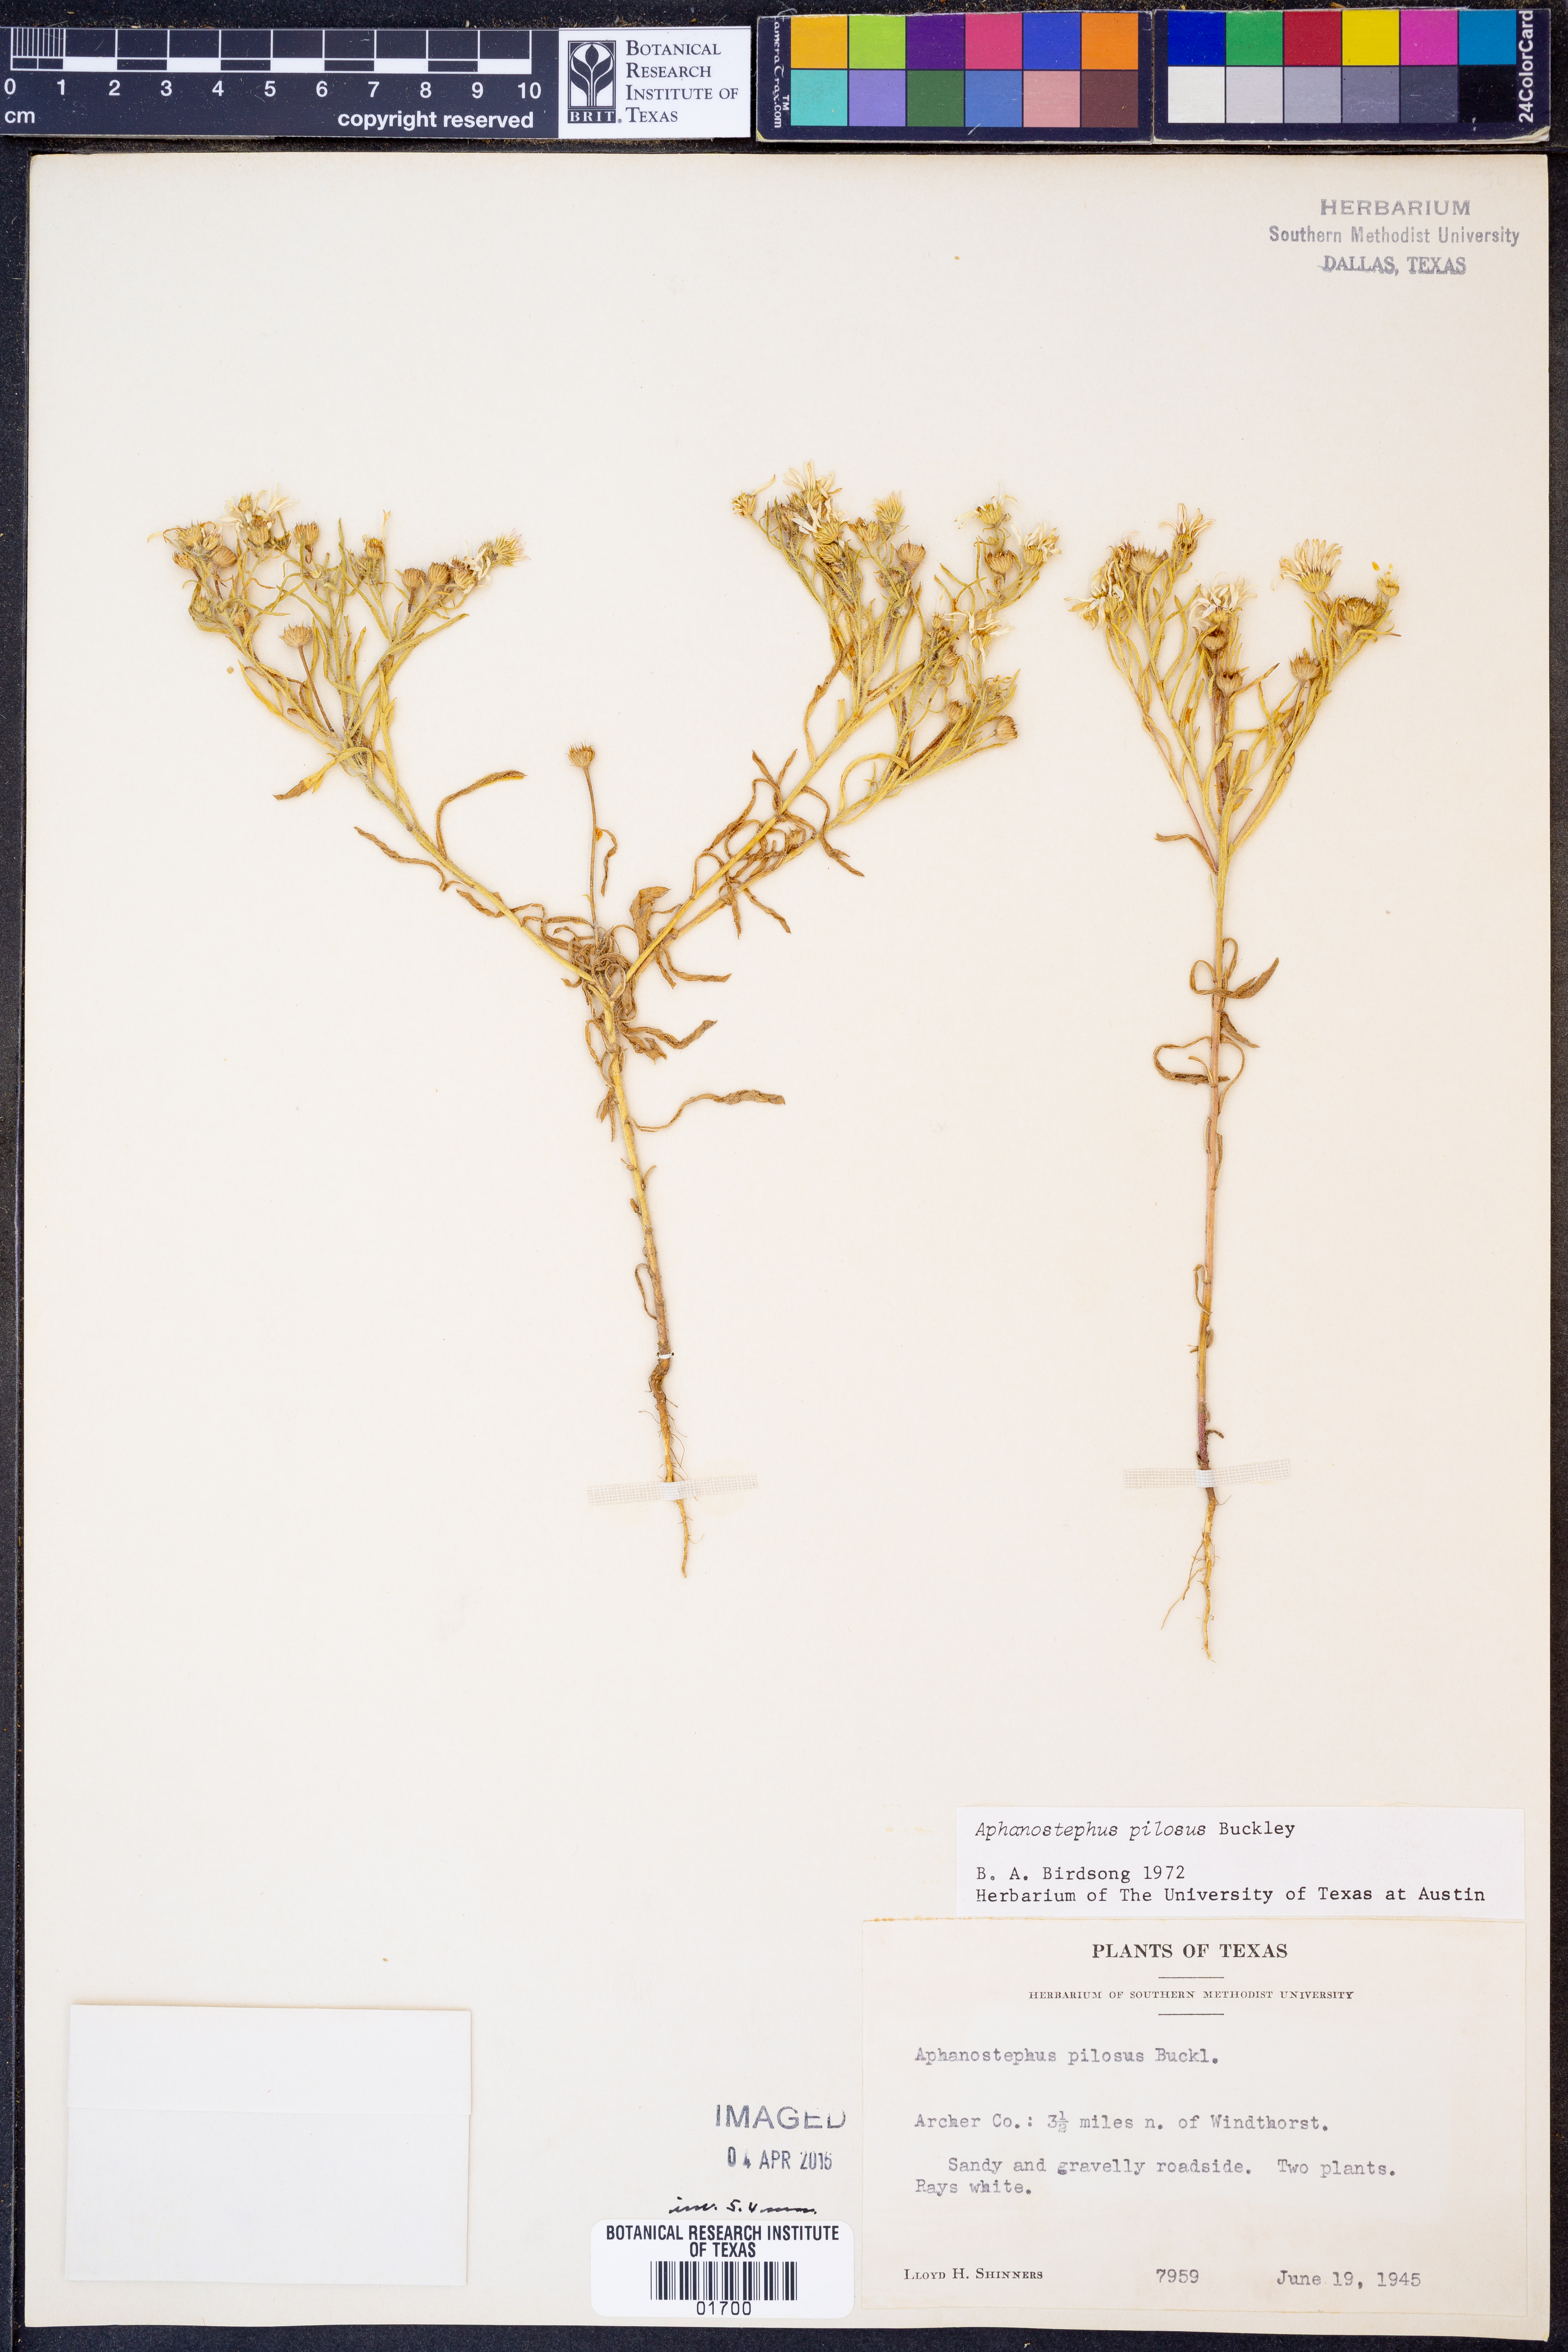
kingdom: Plantae
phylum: Tracheophyta
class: Magnoliopsida
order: Asterales
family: Asteraceae
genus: Aphanostephus
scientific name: Aphanostephus pilosus
